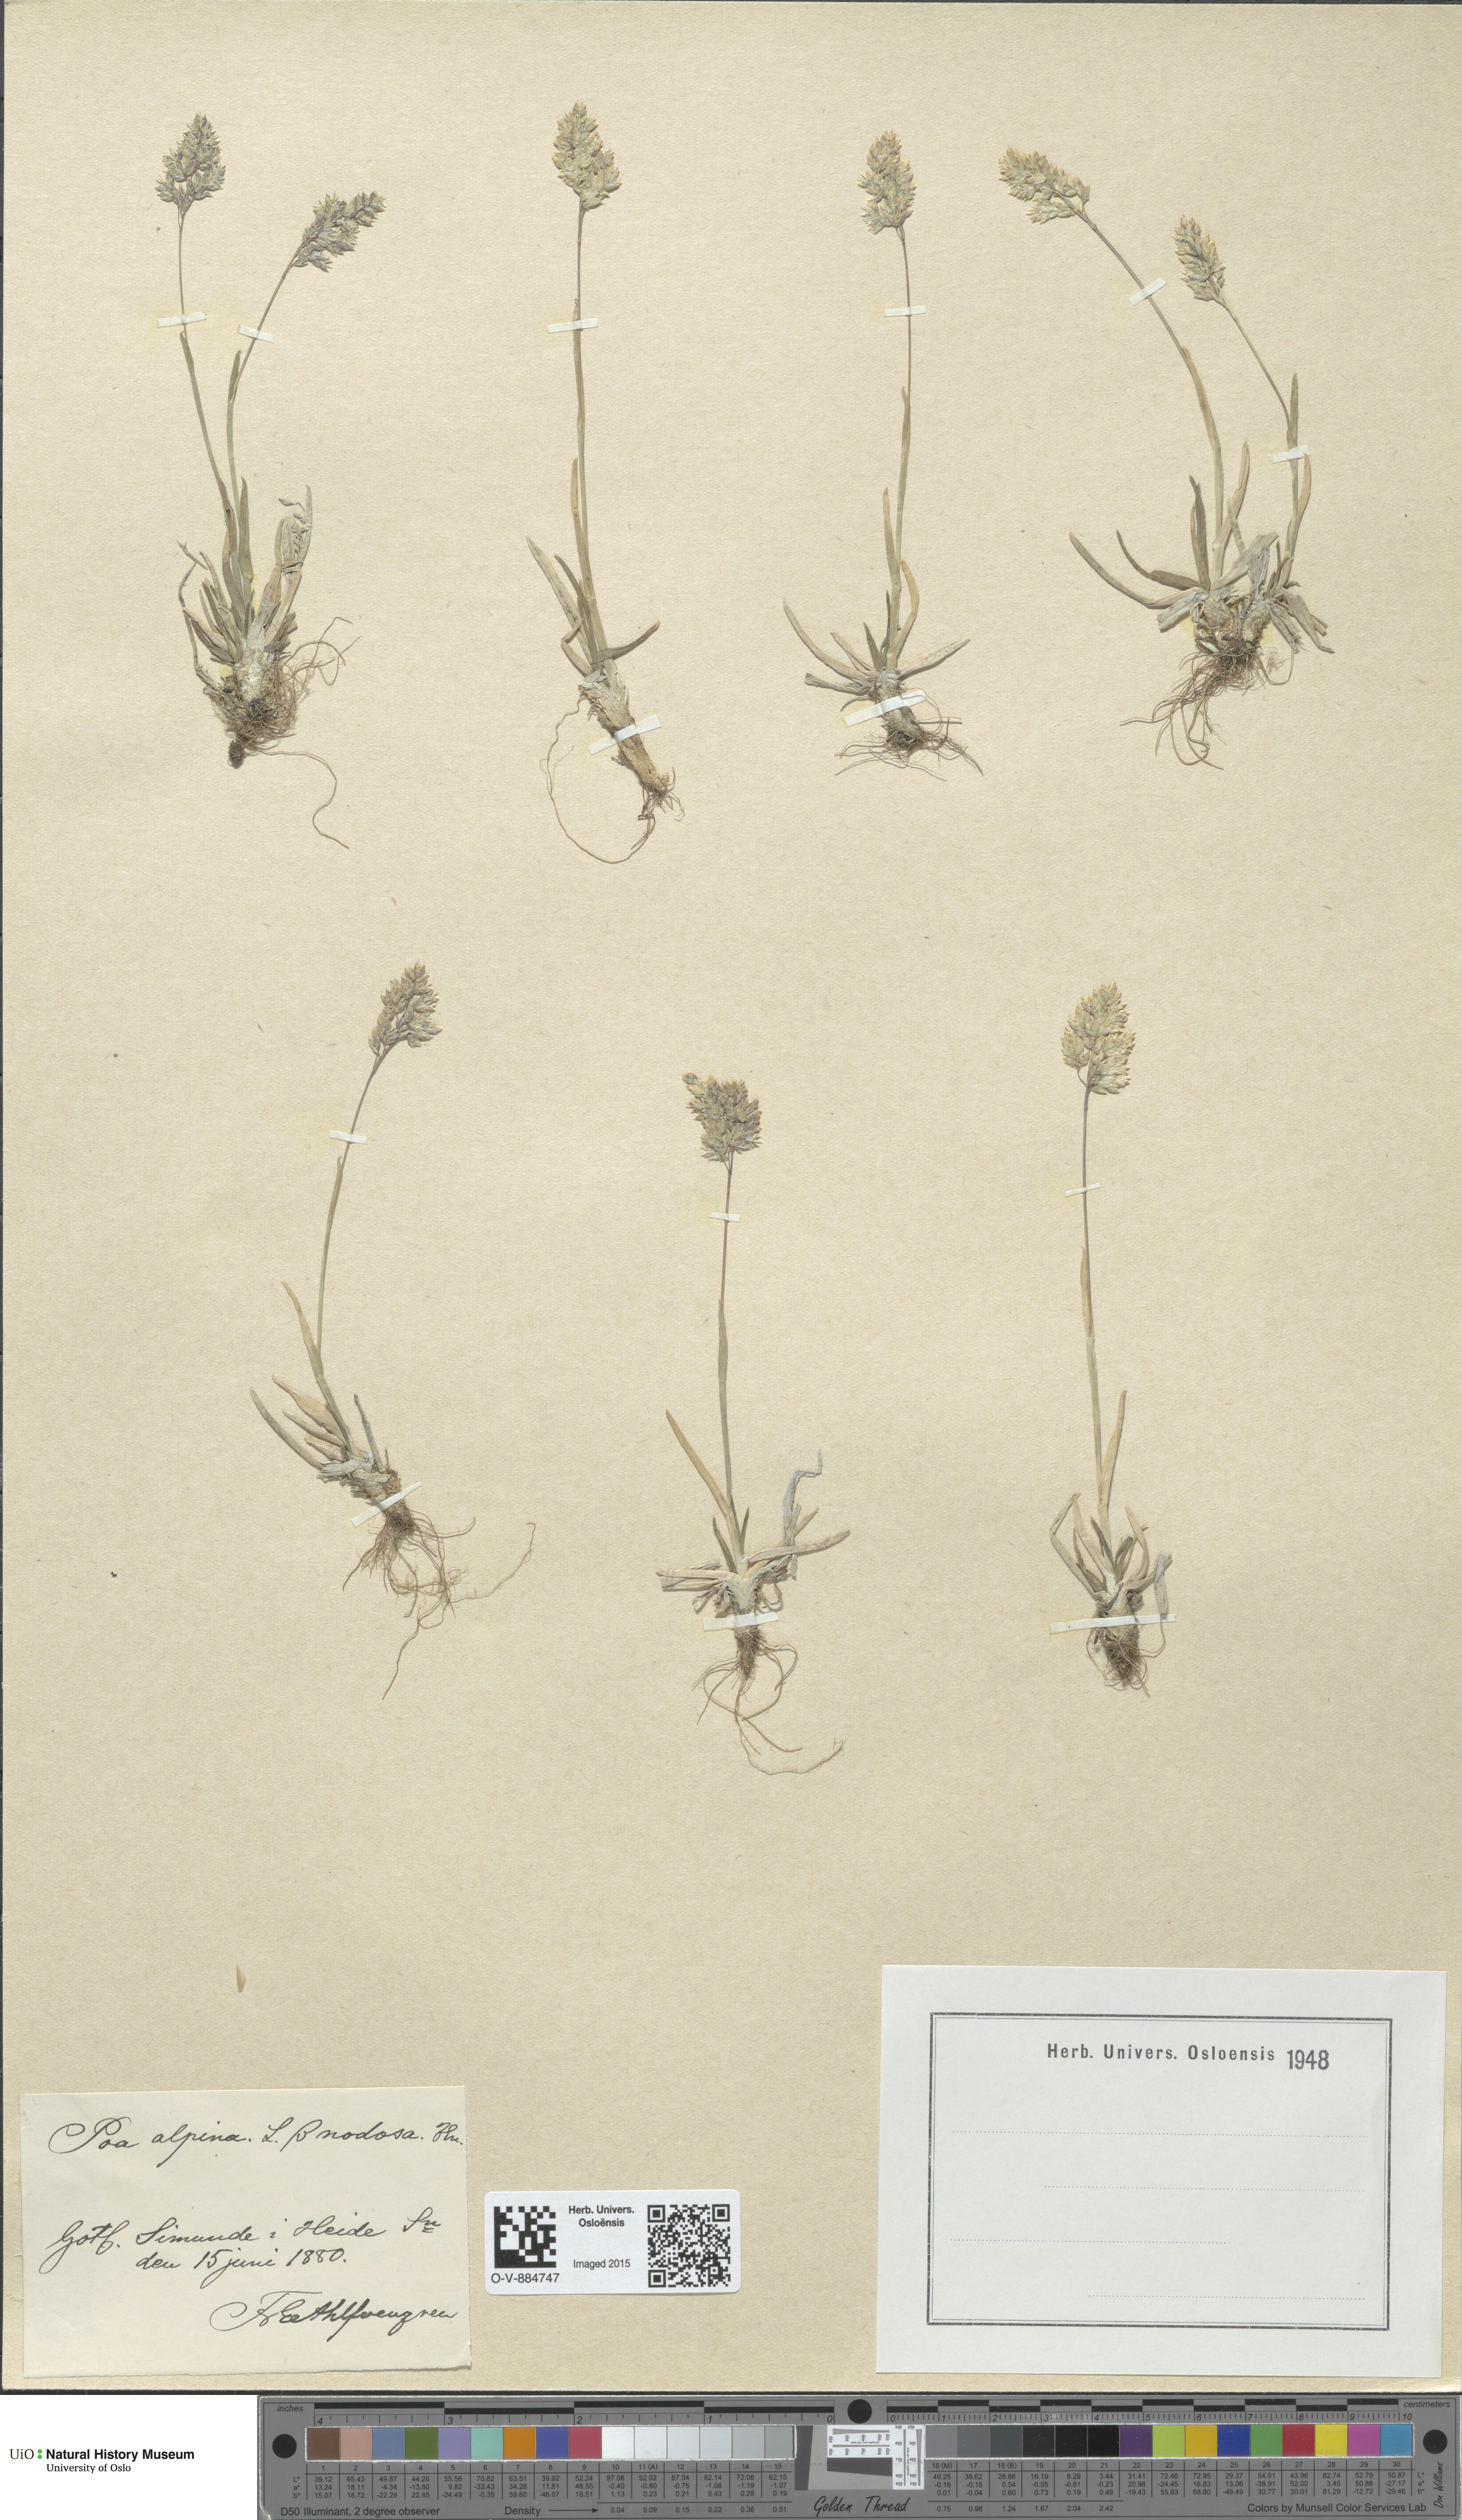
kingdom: Plantae
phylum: Tracheophyta
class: Liliopsida
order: Poales
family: Poaceae
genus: Poa
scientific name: Poa alpina
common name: Alpine bluegrass
